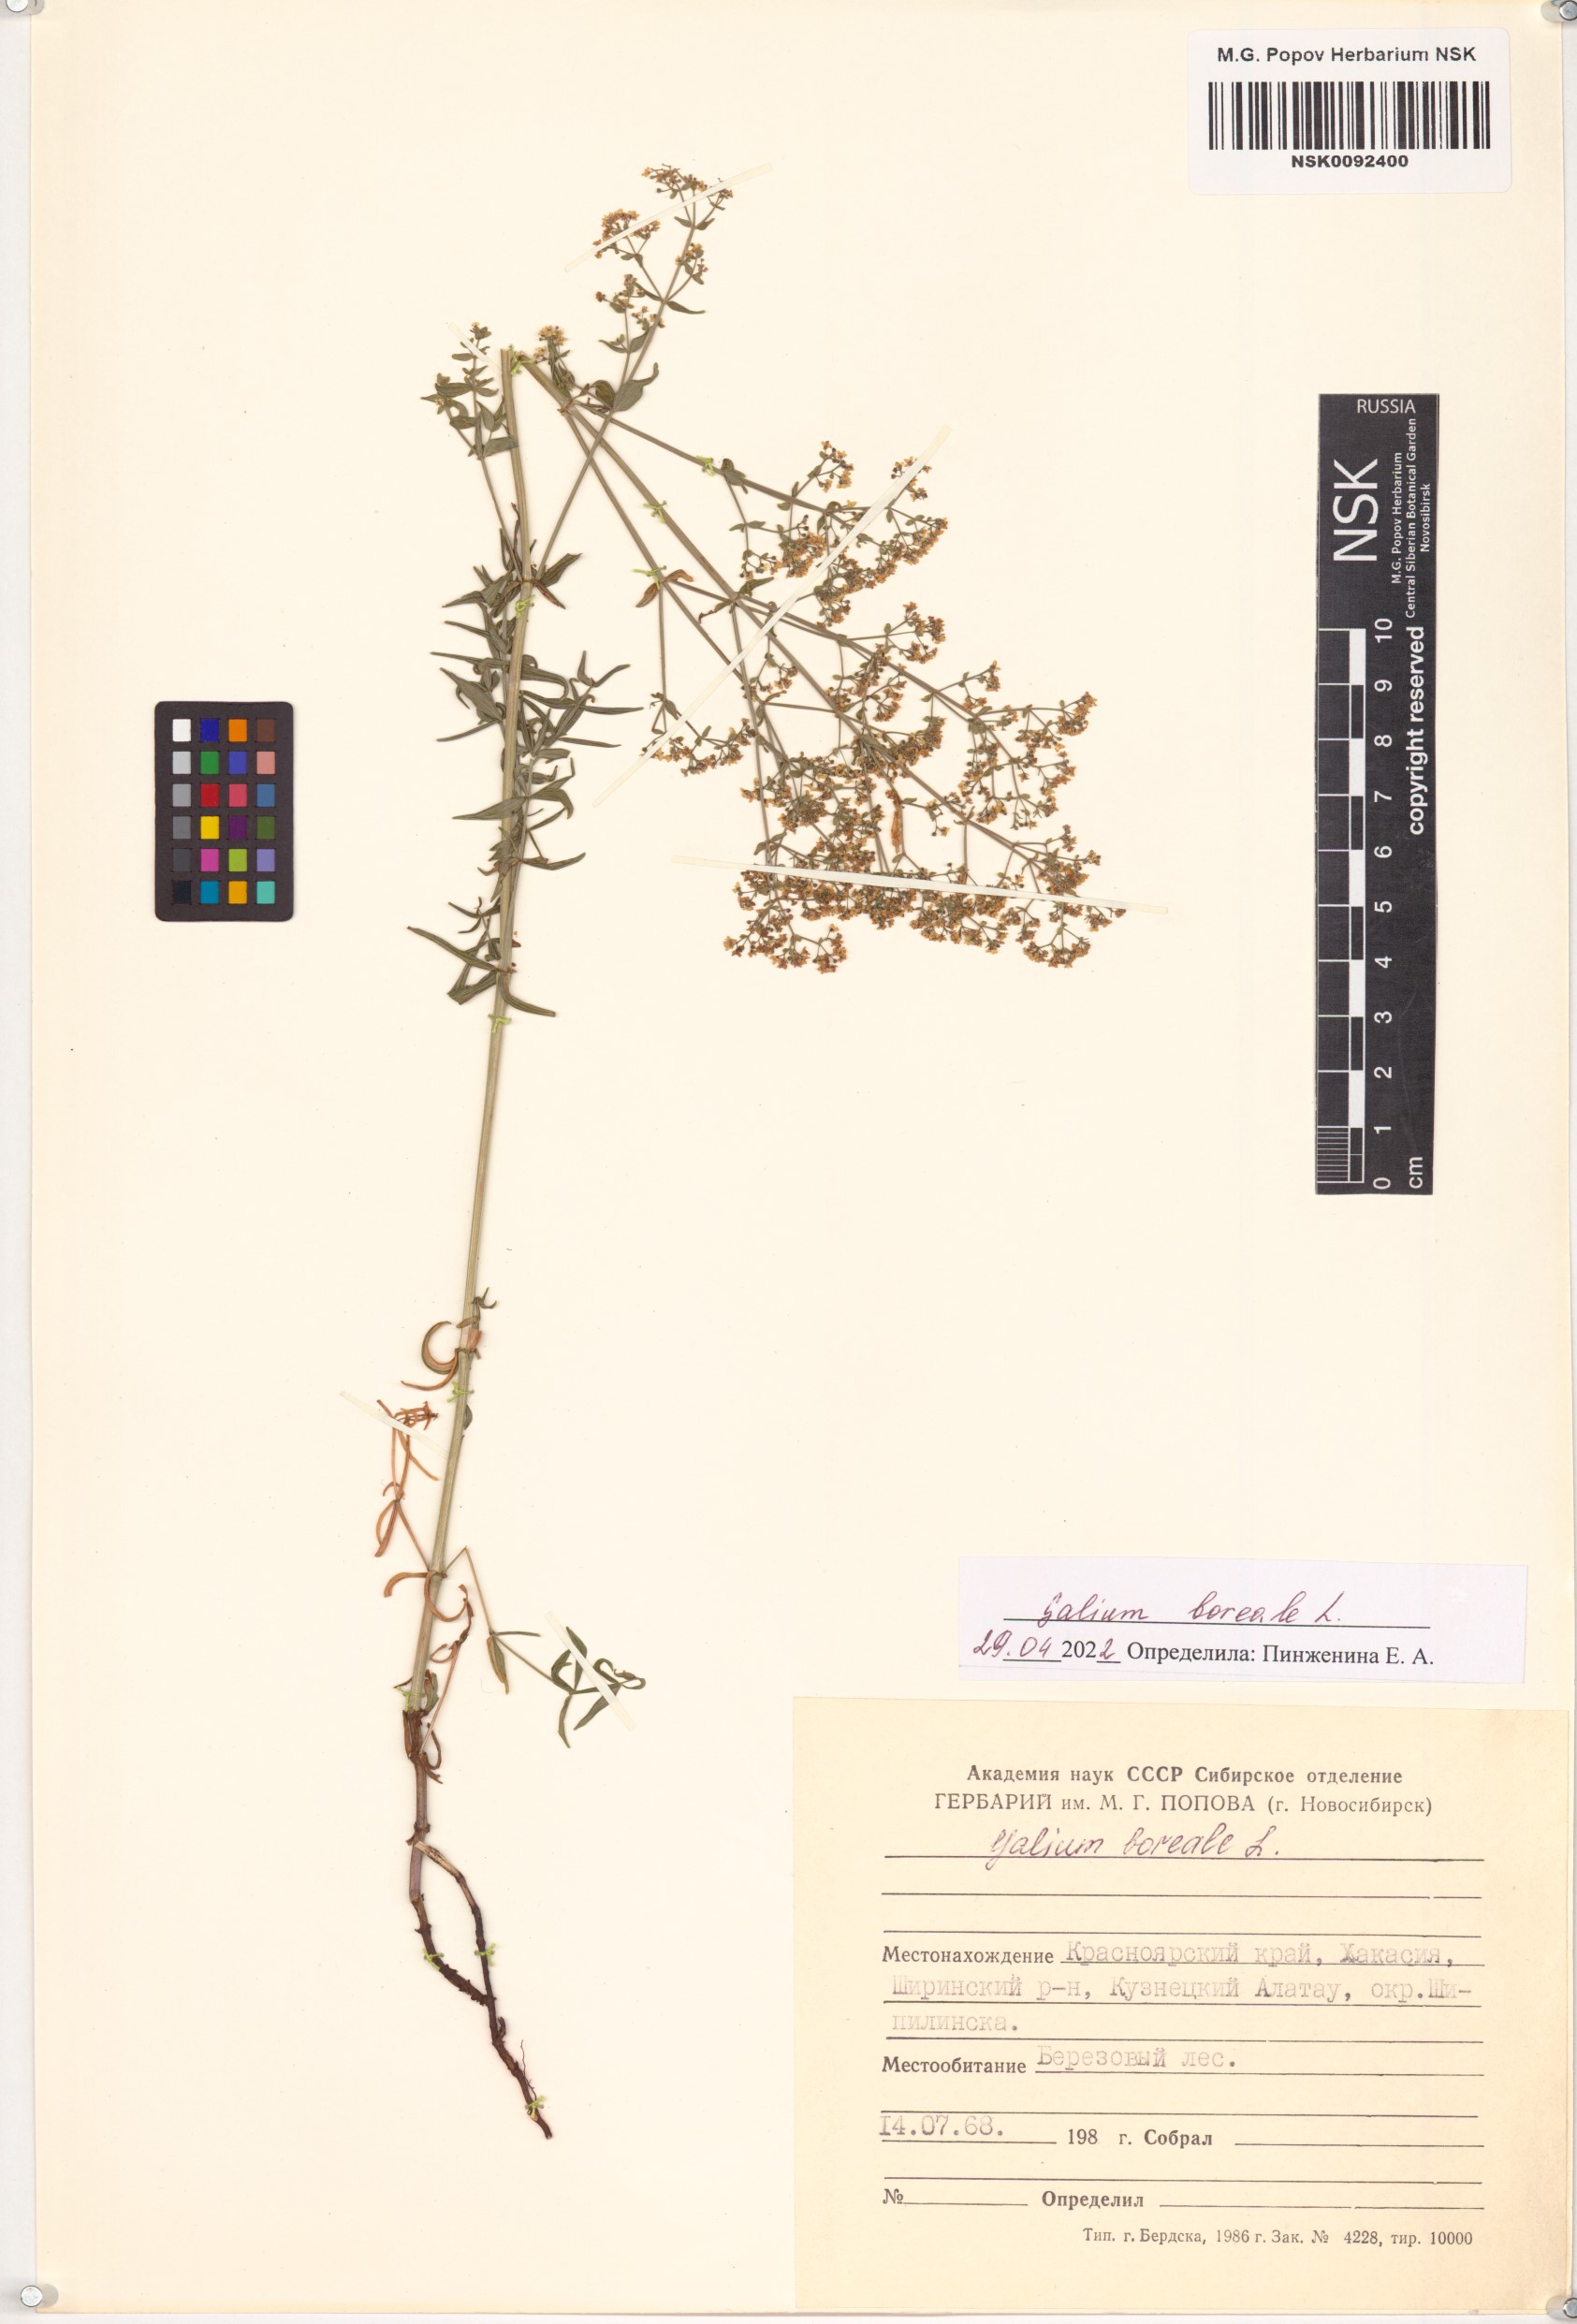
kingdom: Plantae
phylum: Tracheophyta
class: Magnoliopsida
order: Gentianales
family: Rubiaceae
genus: Galium
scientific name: Galium boreale
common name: Northern bedstraw
